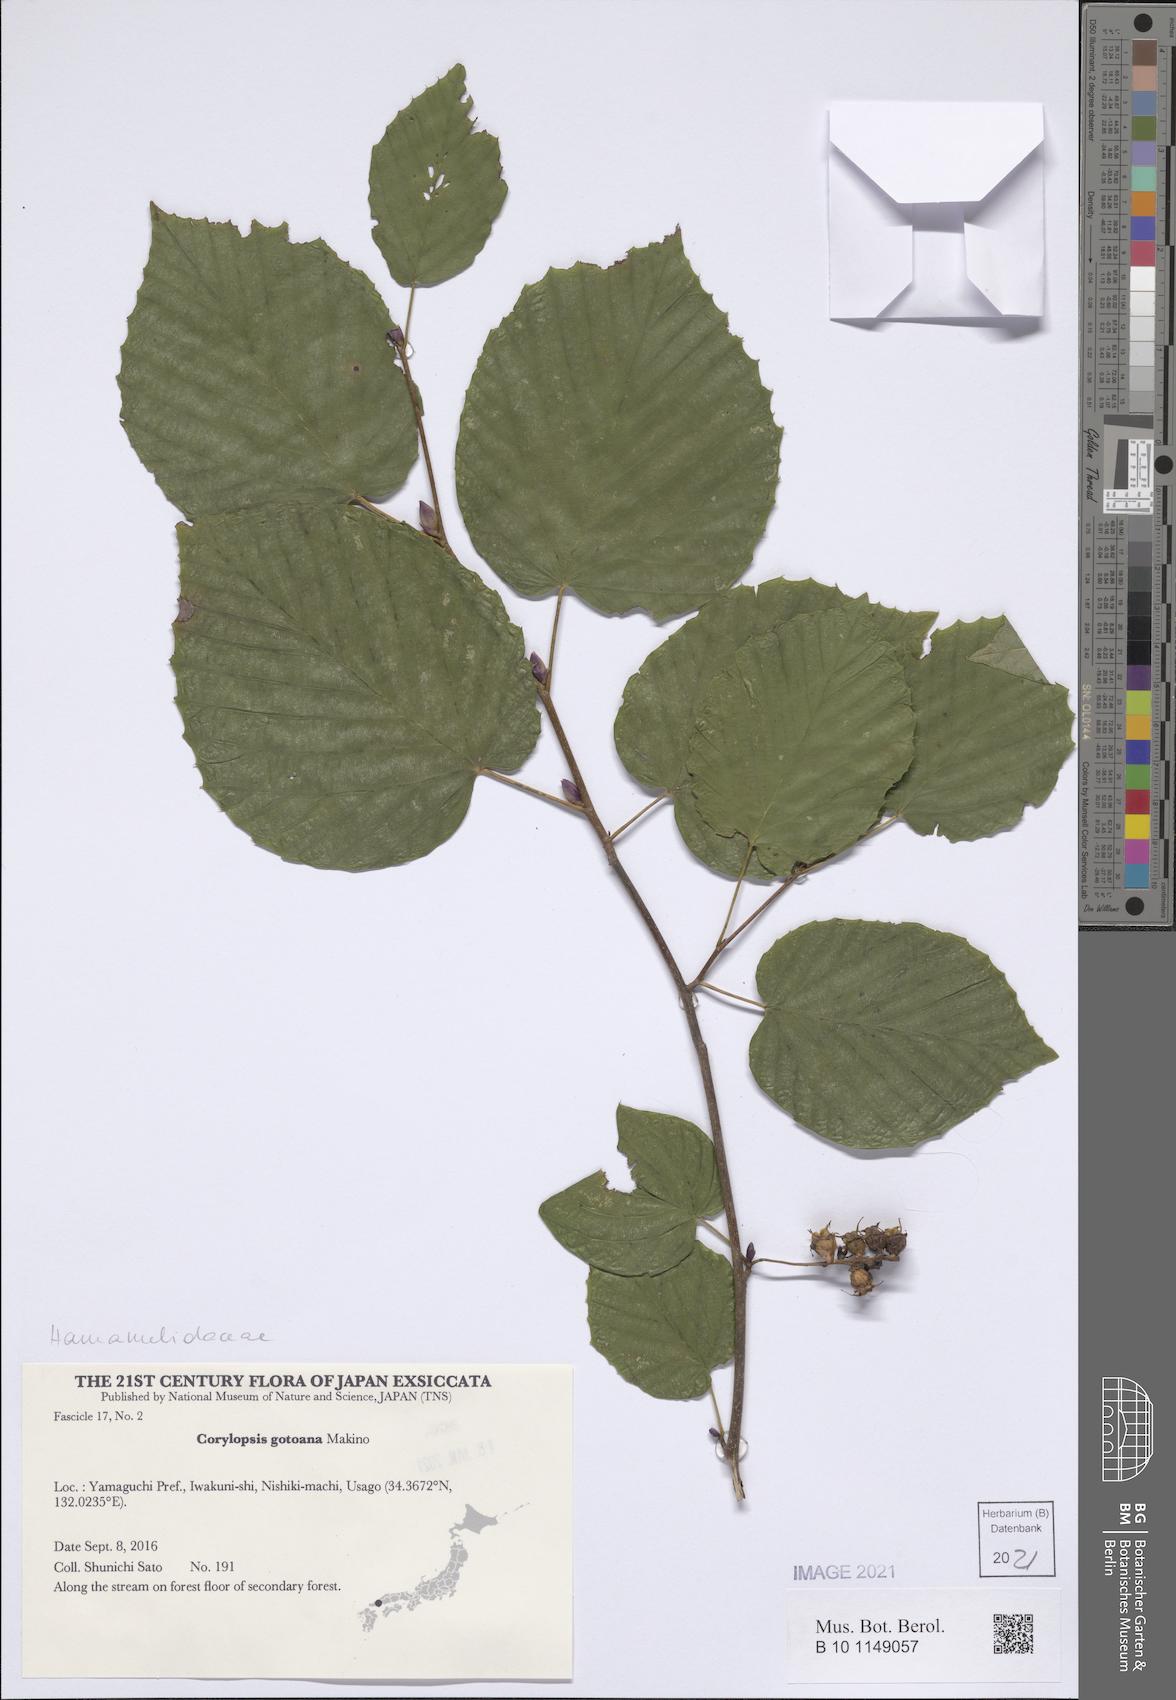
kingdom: Plantae
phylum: Tracheophyta
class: Magnoliopsida
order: Saxifragales
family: Hamamelidaceae
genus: Corylopsis
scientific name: Corylopsis gotoana
